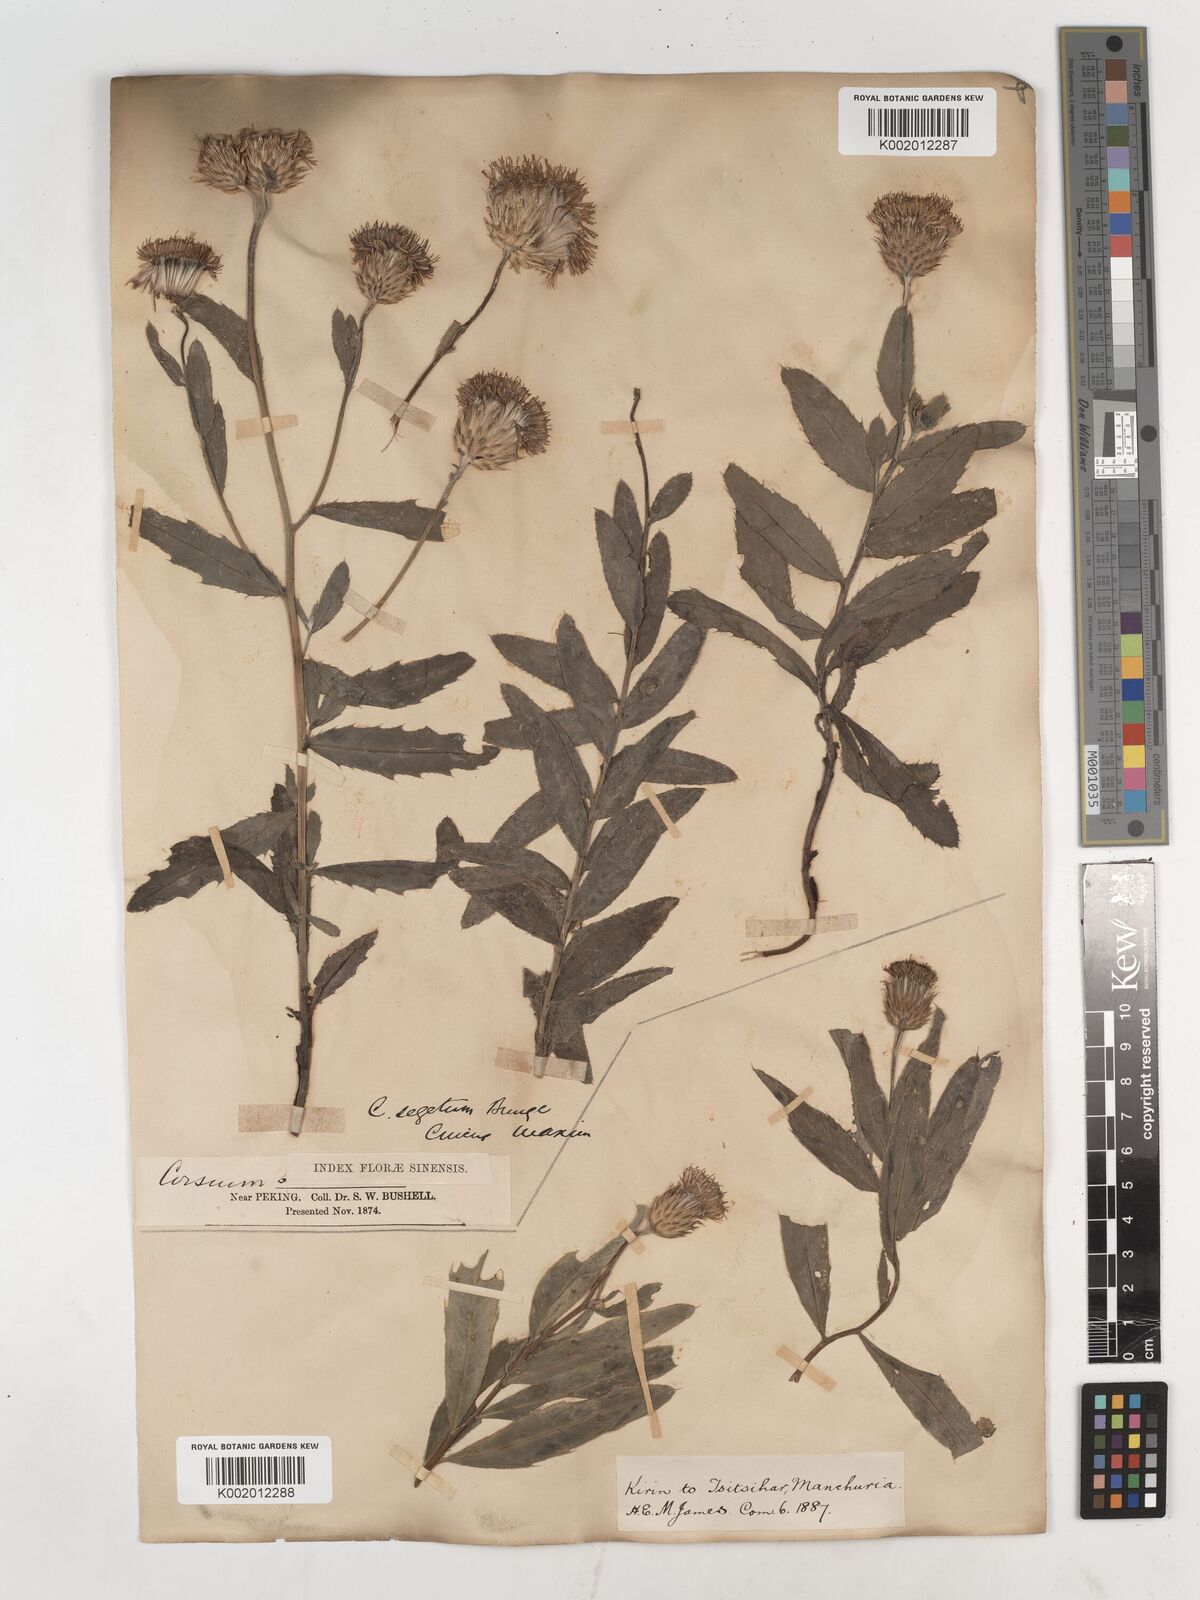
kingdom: Plantae
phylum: Tracheophyta
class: Magnoliopsida
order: Asterales
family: Asteraceae
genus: Cirsium
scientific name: Cirsium arvense
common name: Creeping thistle
